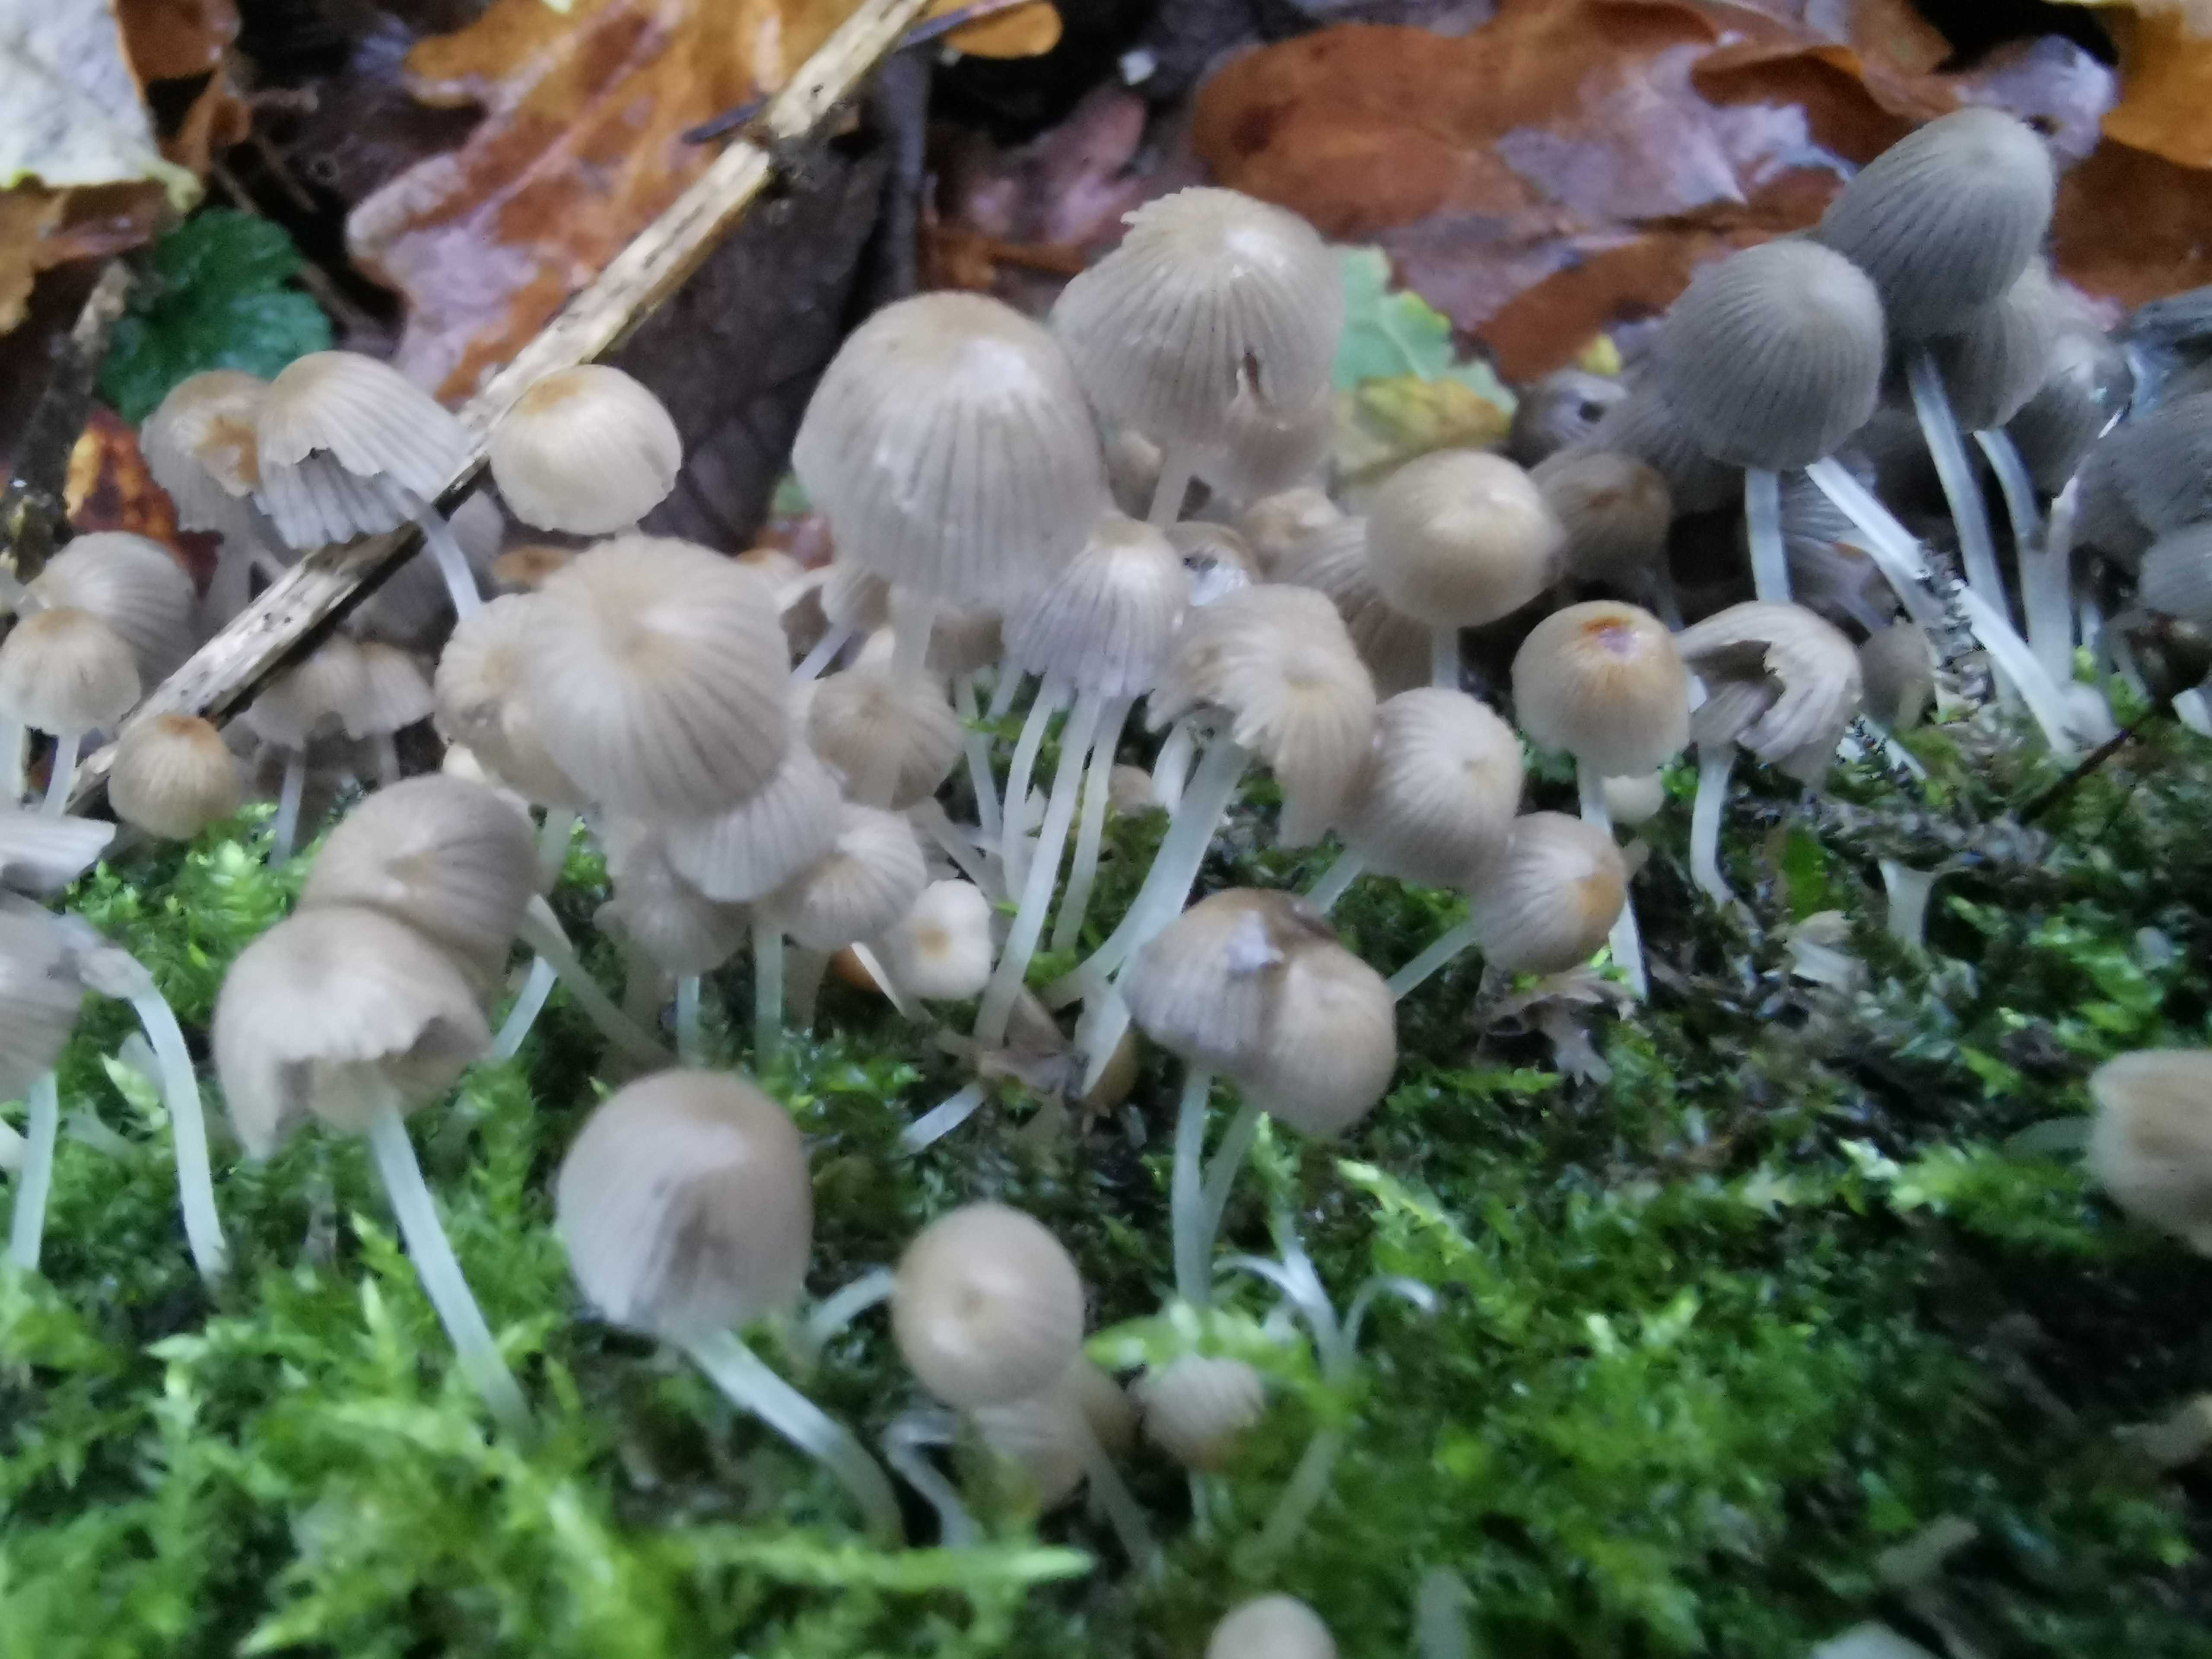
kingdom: Fungi
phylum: Basidiomycota
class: Agaricomycetes
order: Agaricales
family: Psathyrellaceae
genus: Coprinellus
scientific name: Coprinellus disseminatus
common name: bredsået blækhat
